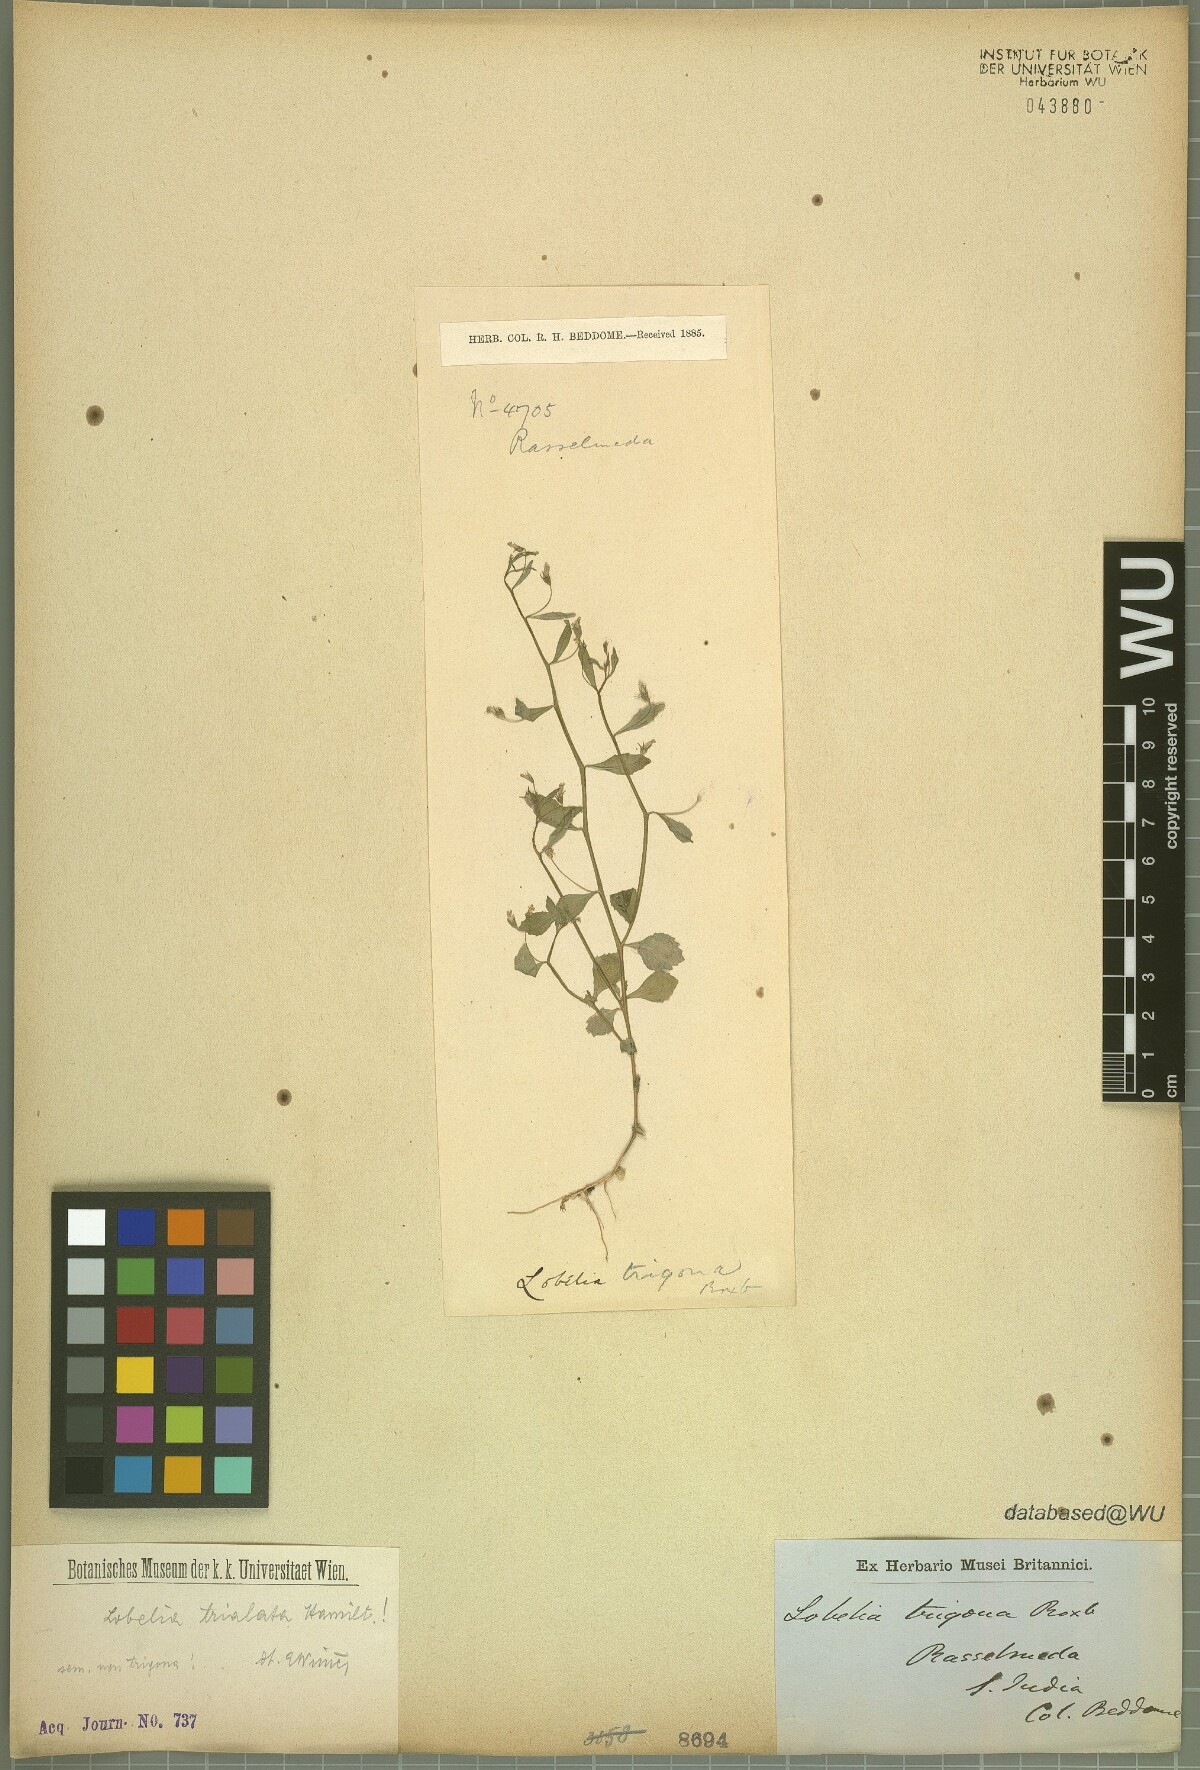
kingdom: Plantae
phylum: Tracheophyta
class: Magnoliopsida
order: Asterales
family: Campanulaceae
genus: Lobelia
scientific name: Lobelia trialata
